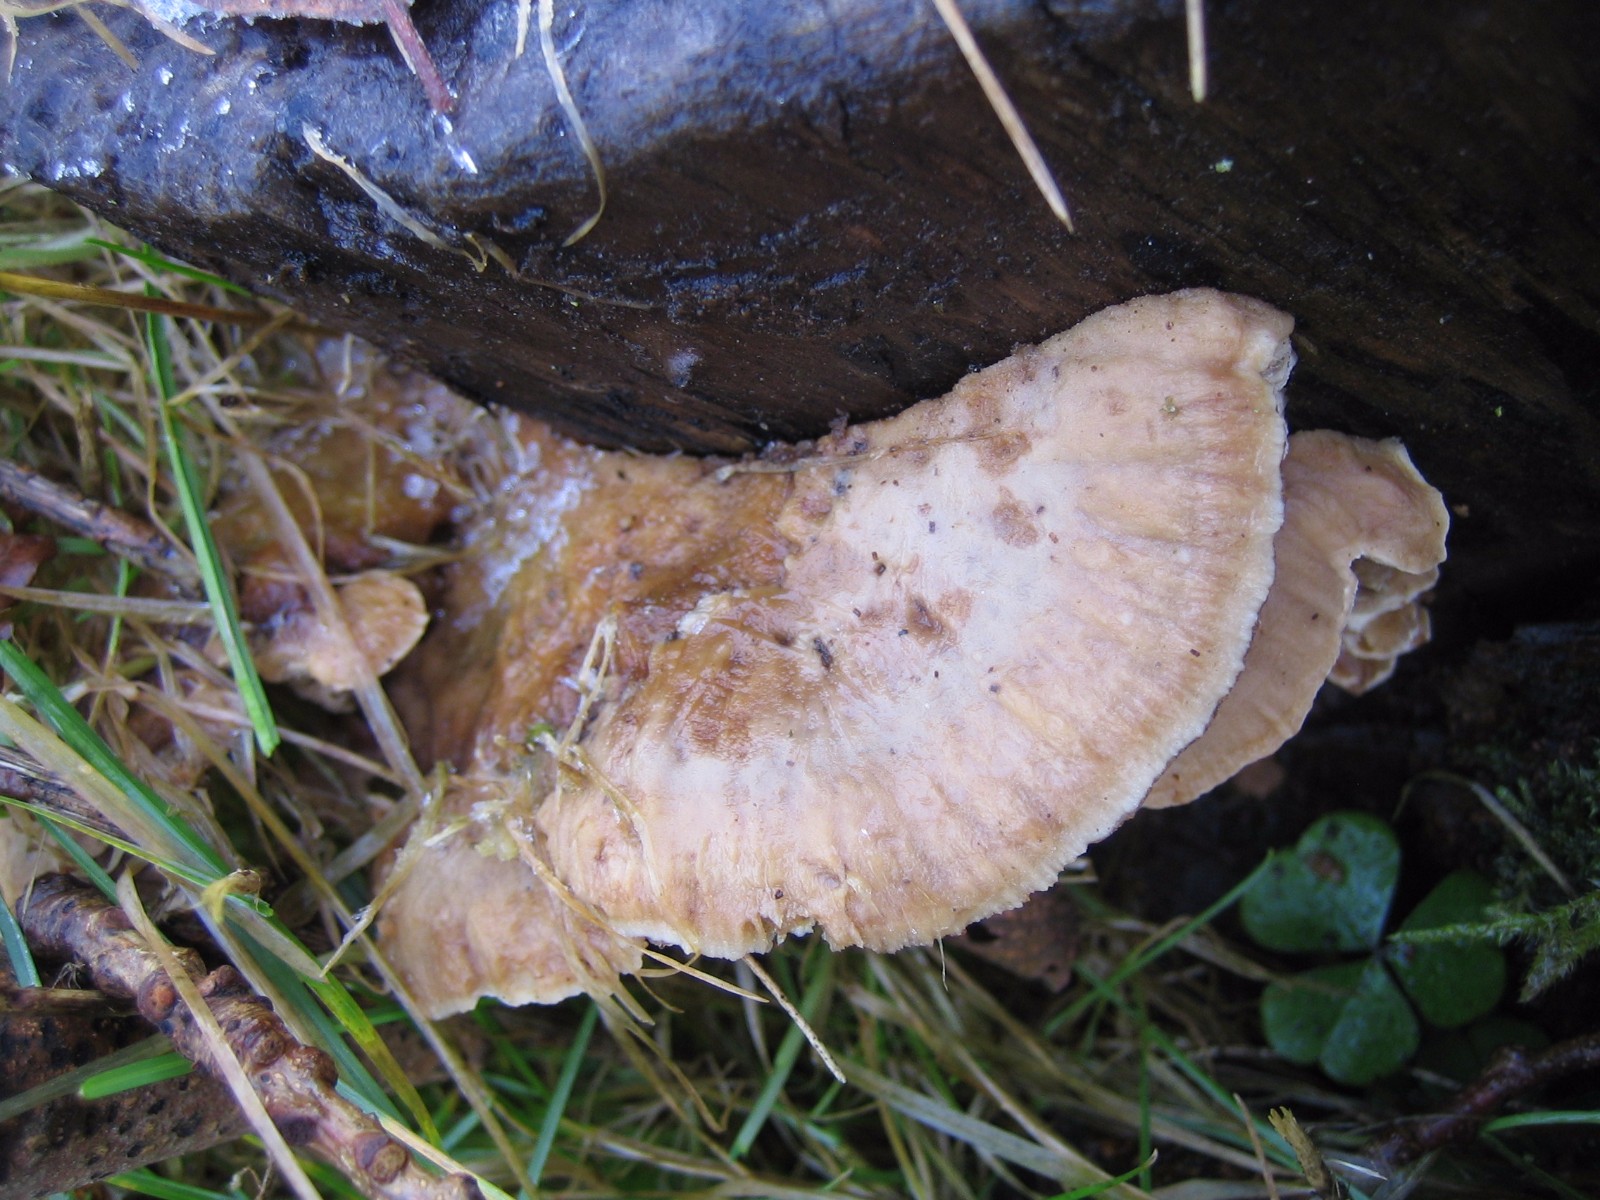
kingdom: Fungi
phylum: Basidiomycota
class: Agaricomycetes
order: Polyporales
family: Phanerochaetaceae
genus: Bjerkandera
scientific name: Bjerkandera fumosa
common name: grågul sodporesvamp
